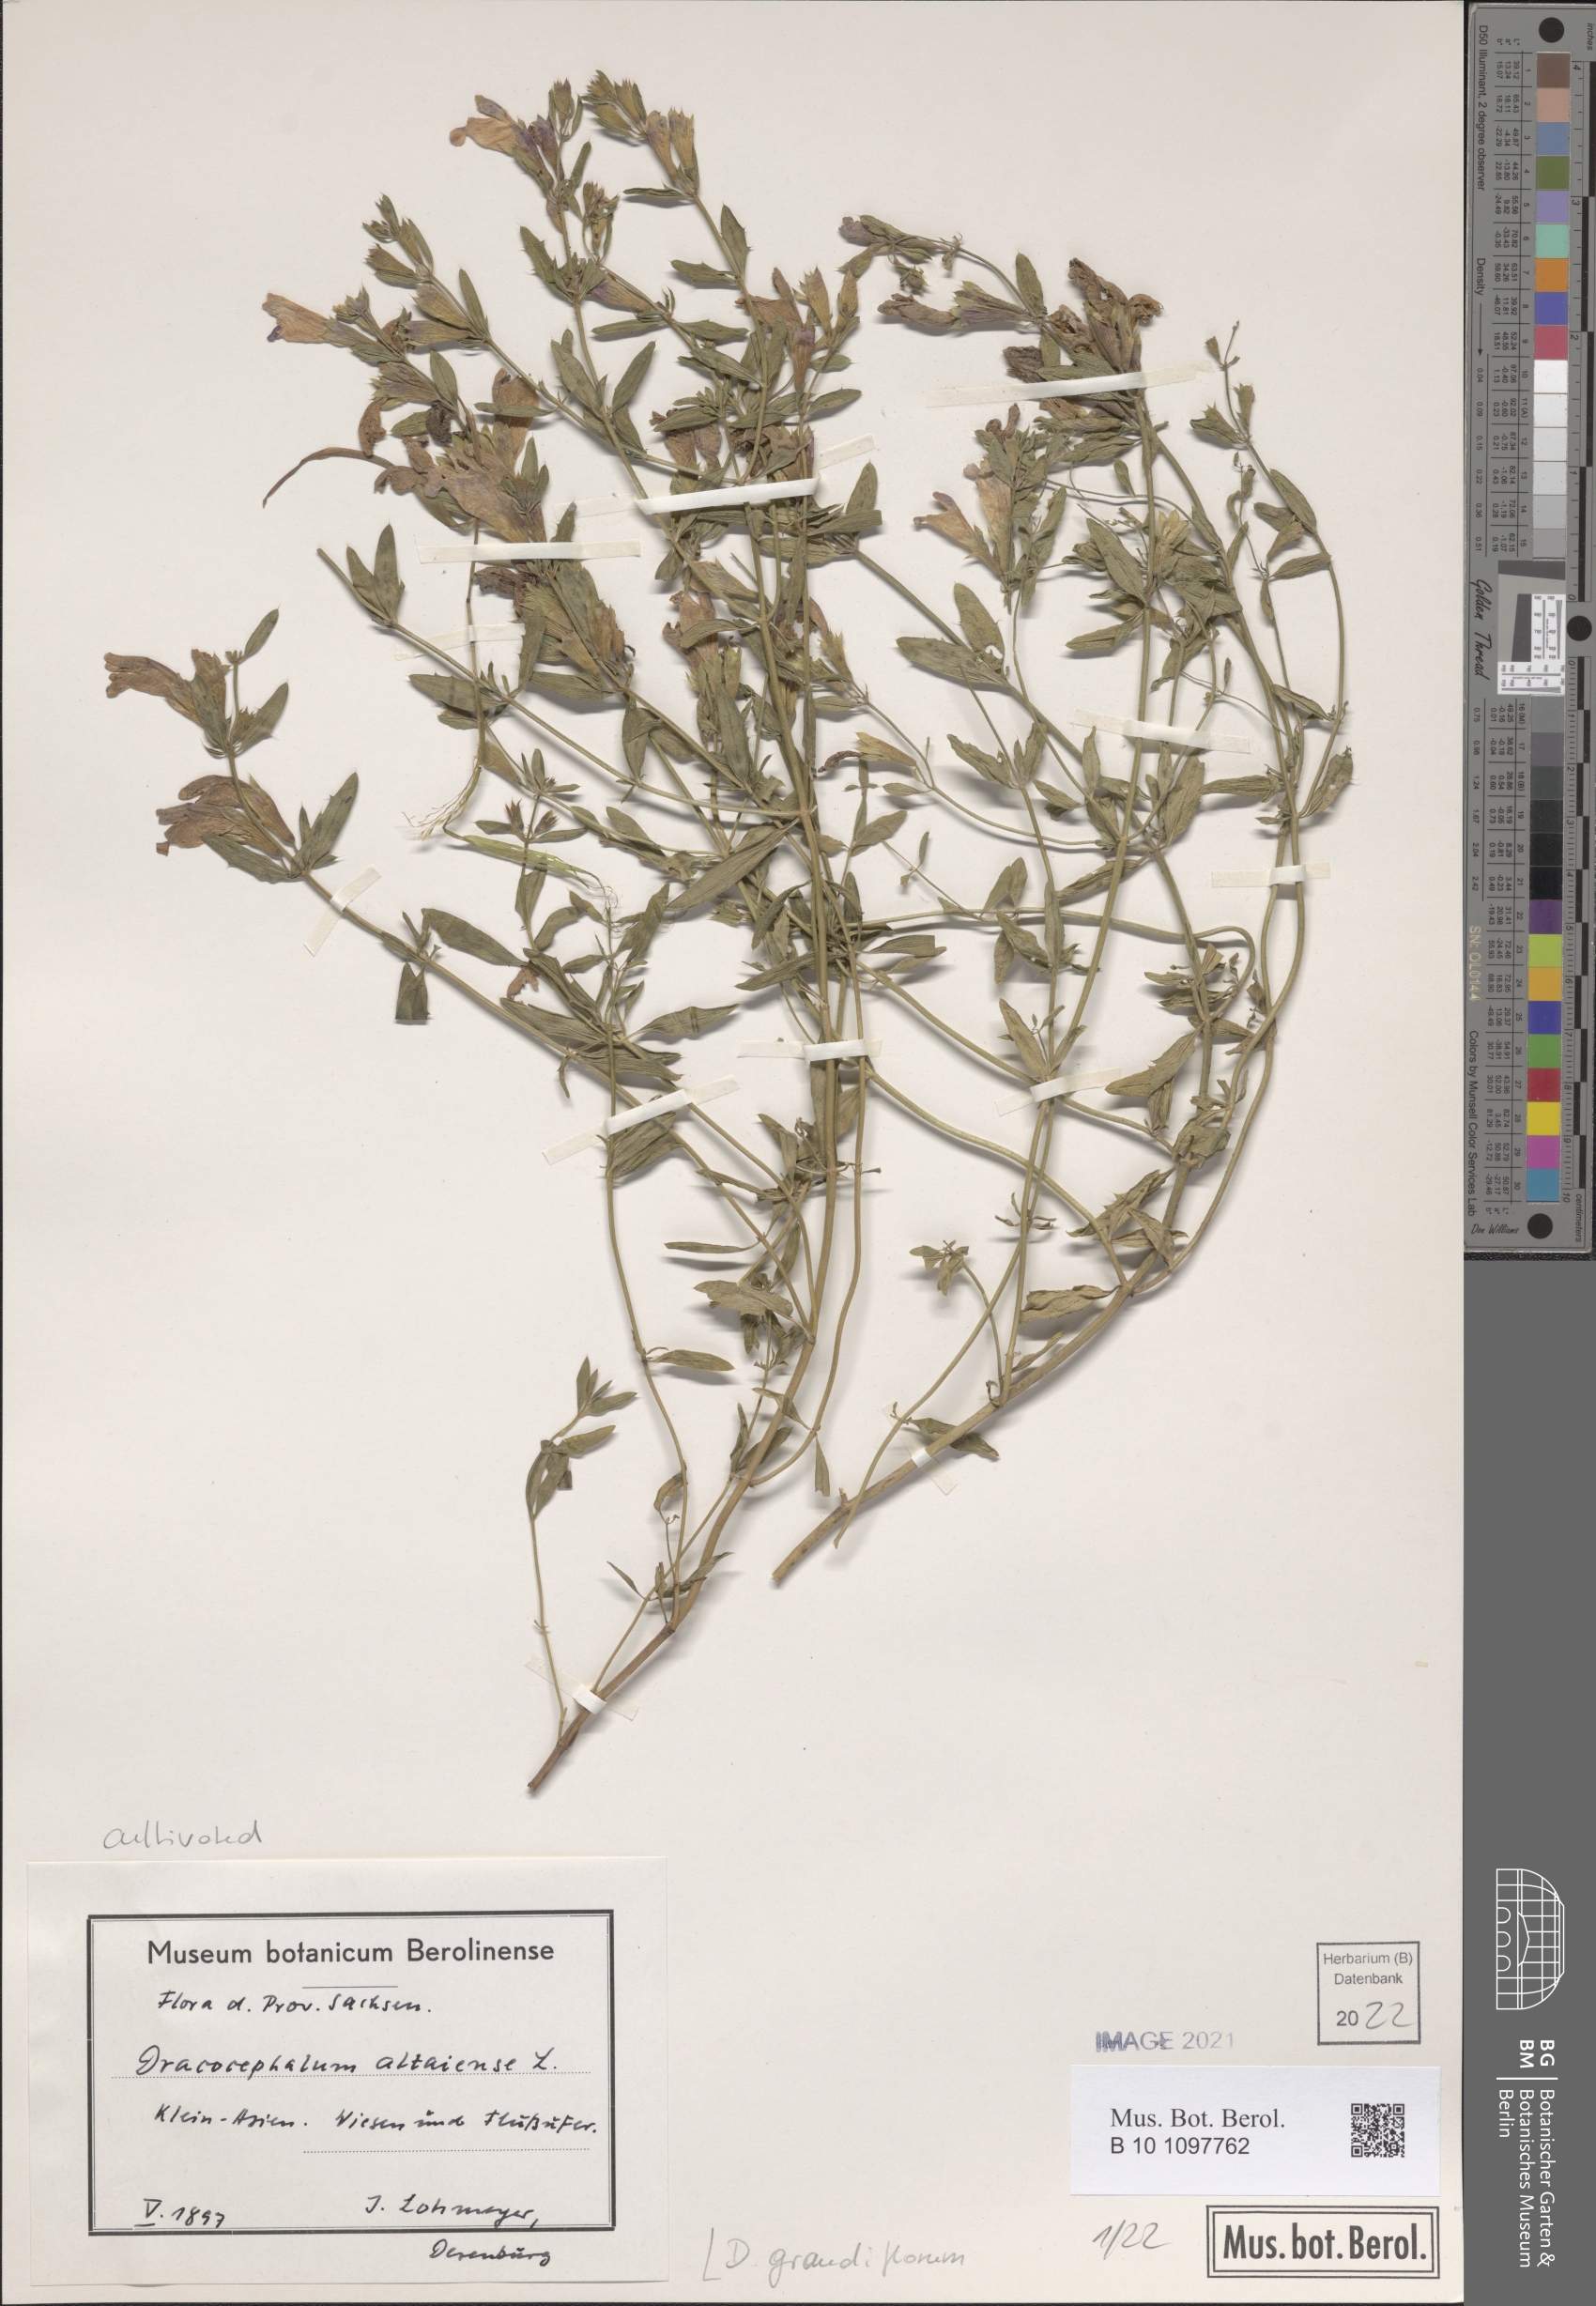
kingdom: Plantae
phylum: Tracheophyta
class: Magnoliopsida
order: Lamiales
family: Lamiaceae
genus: Dracocephalum
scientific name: Dracocephalum grandiflorum
